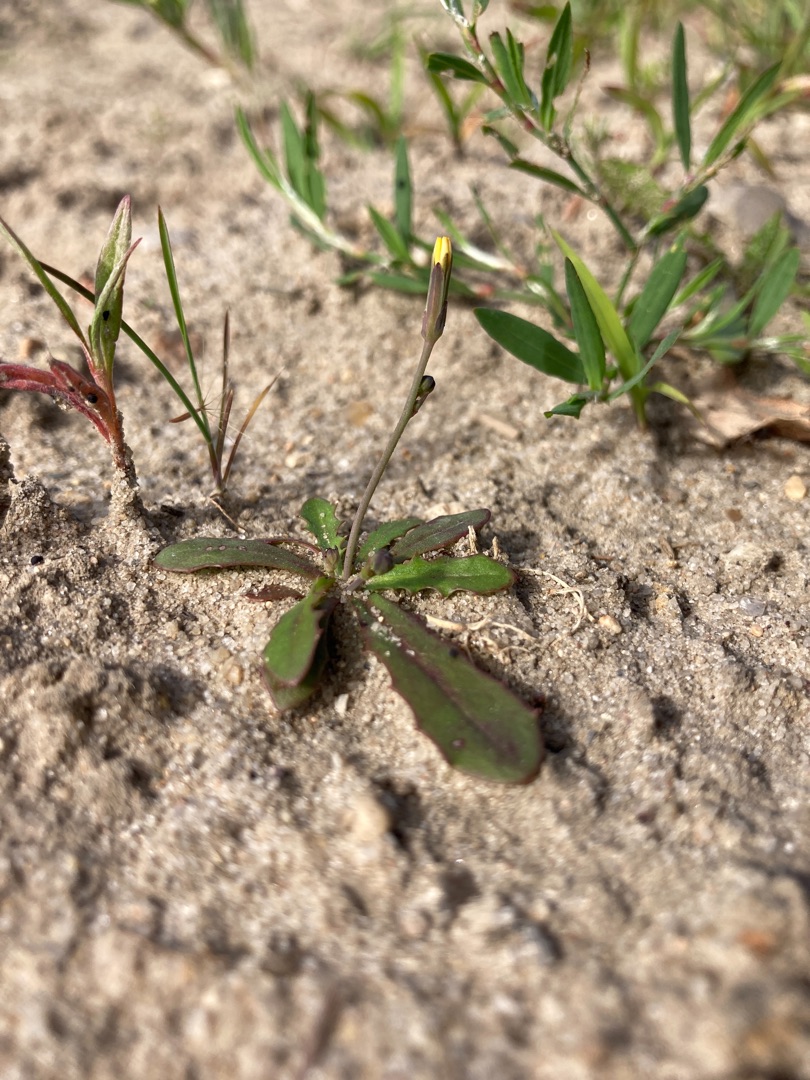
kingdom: Plantae
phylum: Tracheophyta
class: Magnoliopsida
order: Asterales
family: Asteraceae
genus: Hypochaeris
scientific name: Hypochaeris glabra
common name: Glat kongepen
